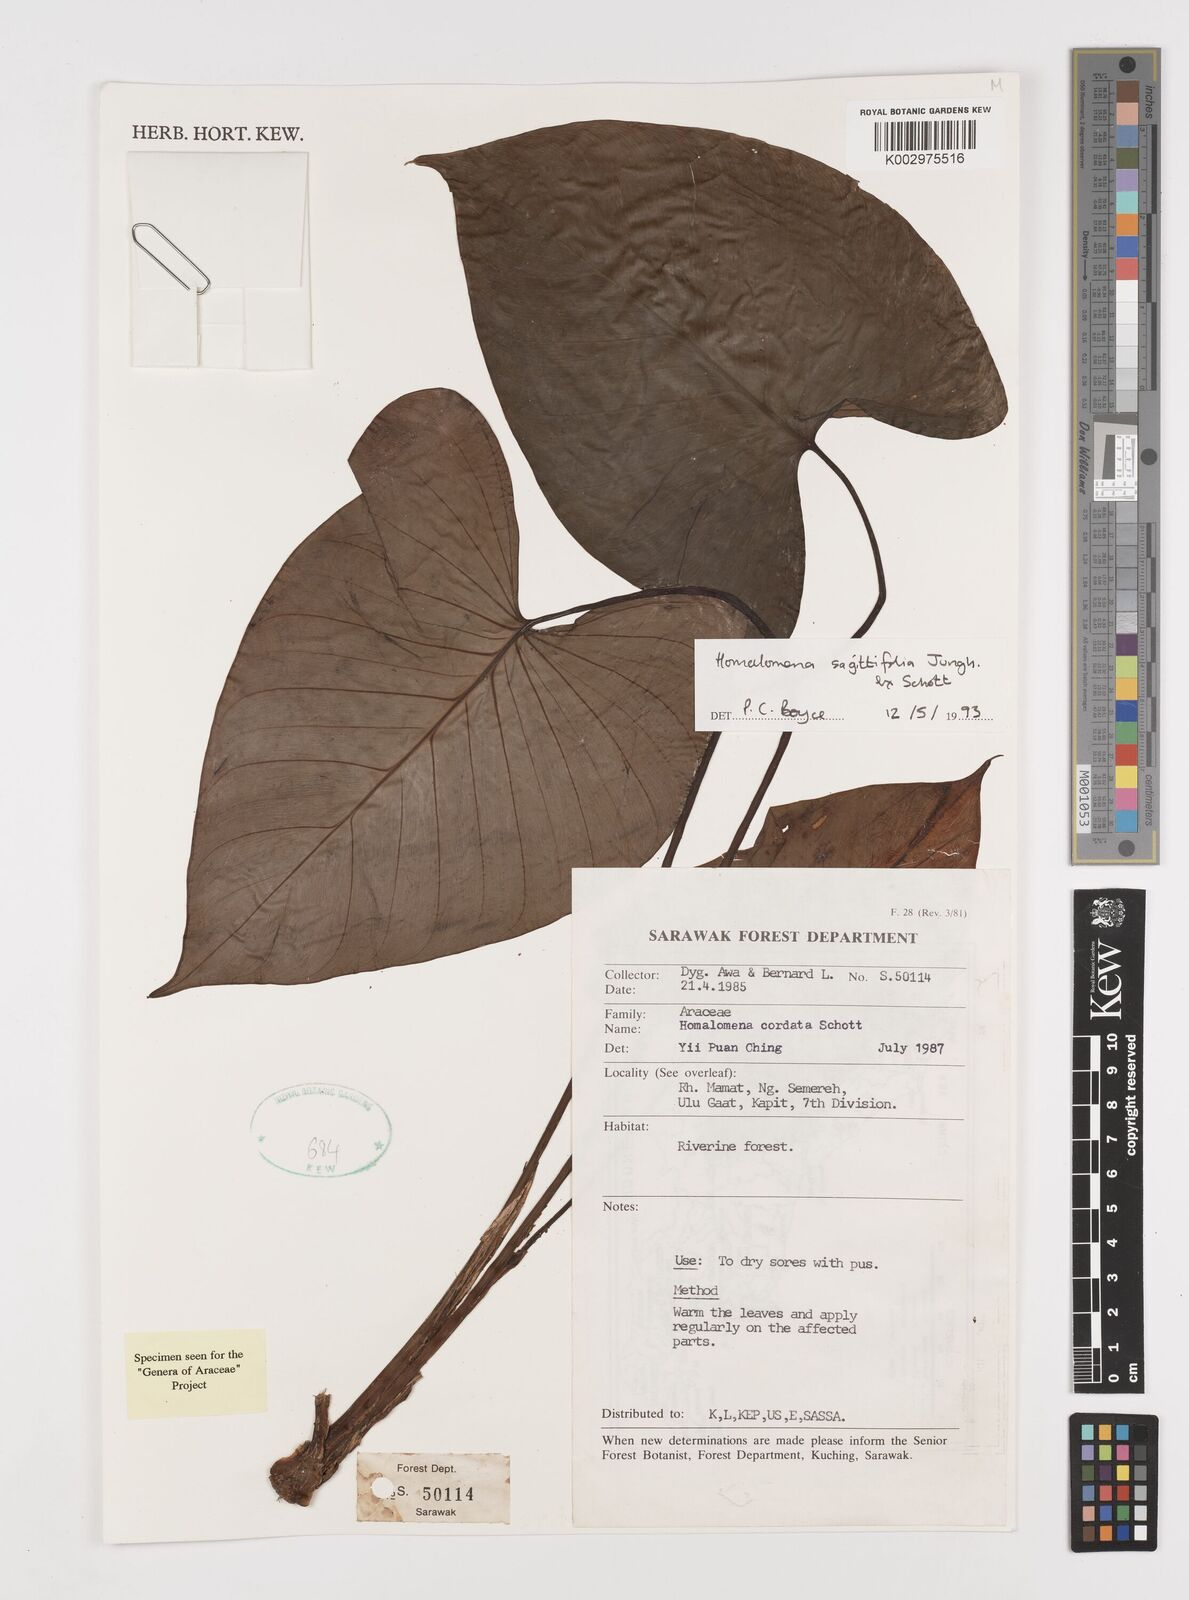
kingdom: Plantae
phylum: Tracheophyta
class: Liliopsida
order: Alismatales
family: Araceae
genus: Homalomena
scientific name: Homalomena rostrata
